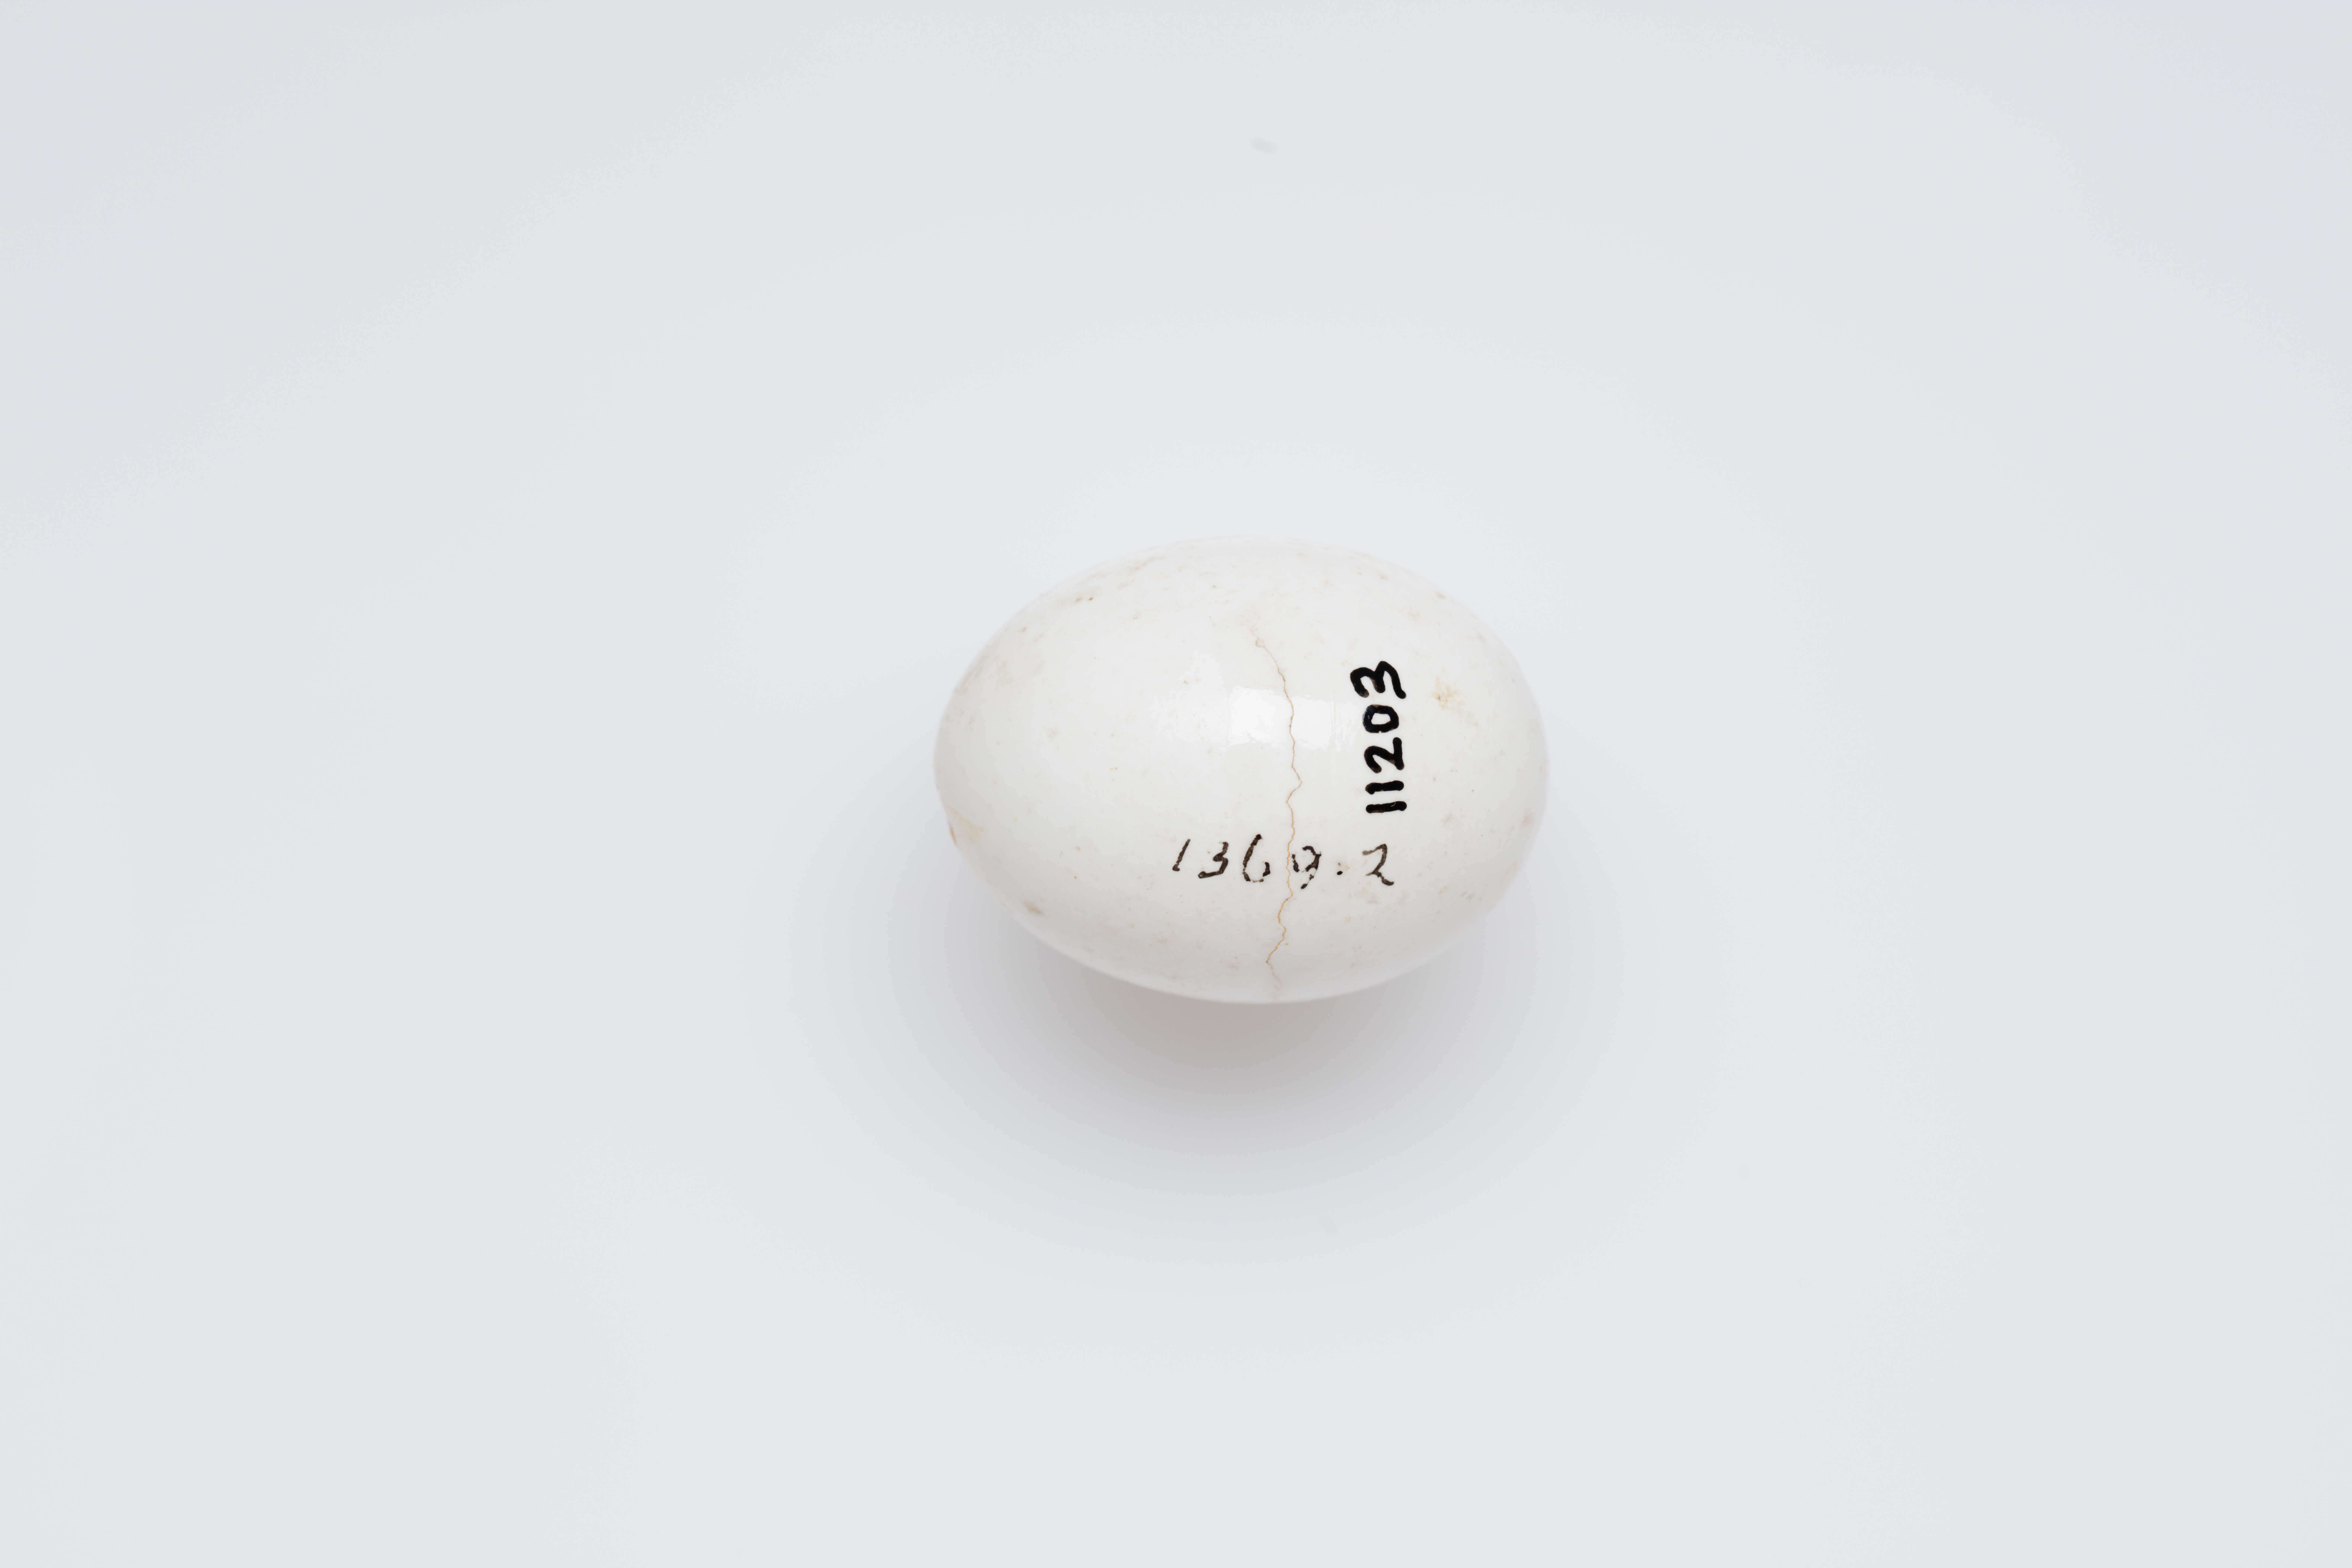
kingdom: Animalia
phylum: Chordata
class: Aves
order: Coraciiformes
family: Alcedinidae
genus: Todiramphus
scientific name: Todiramphus saurophagus
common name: Beach kingfisher
